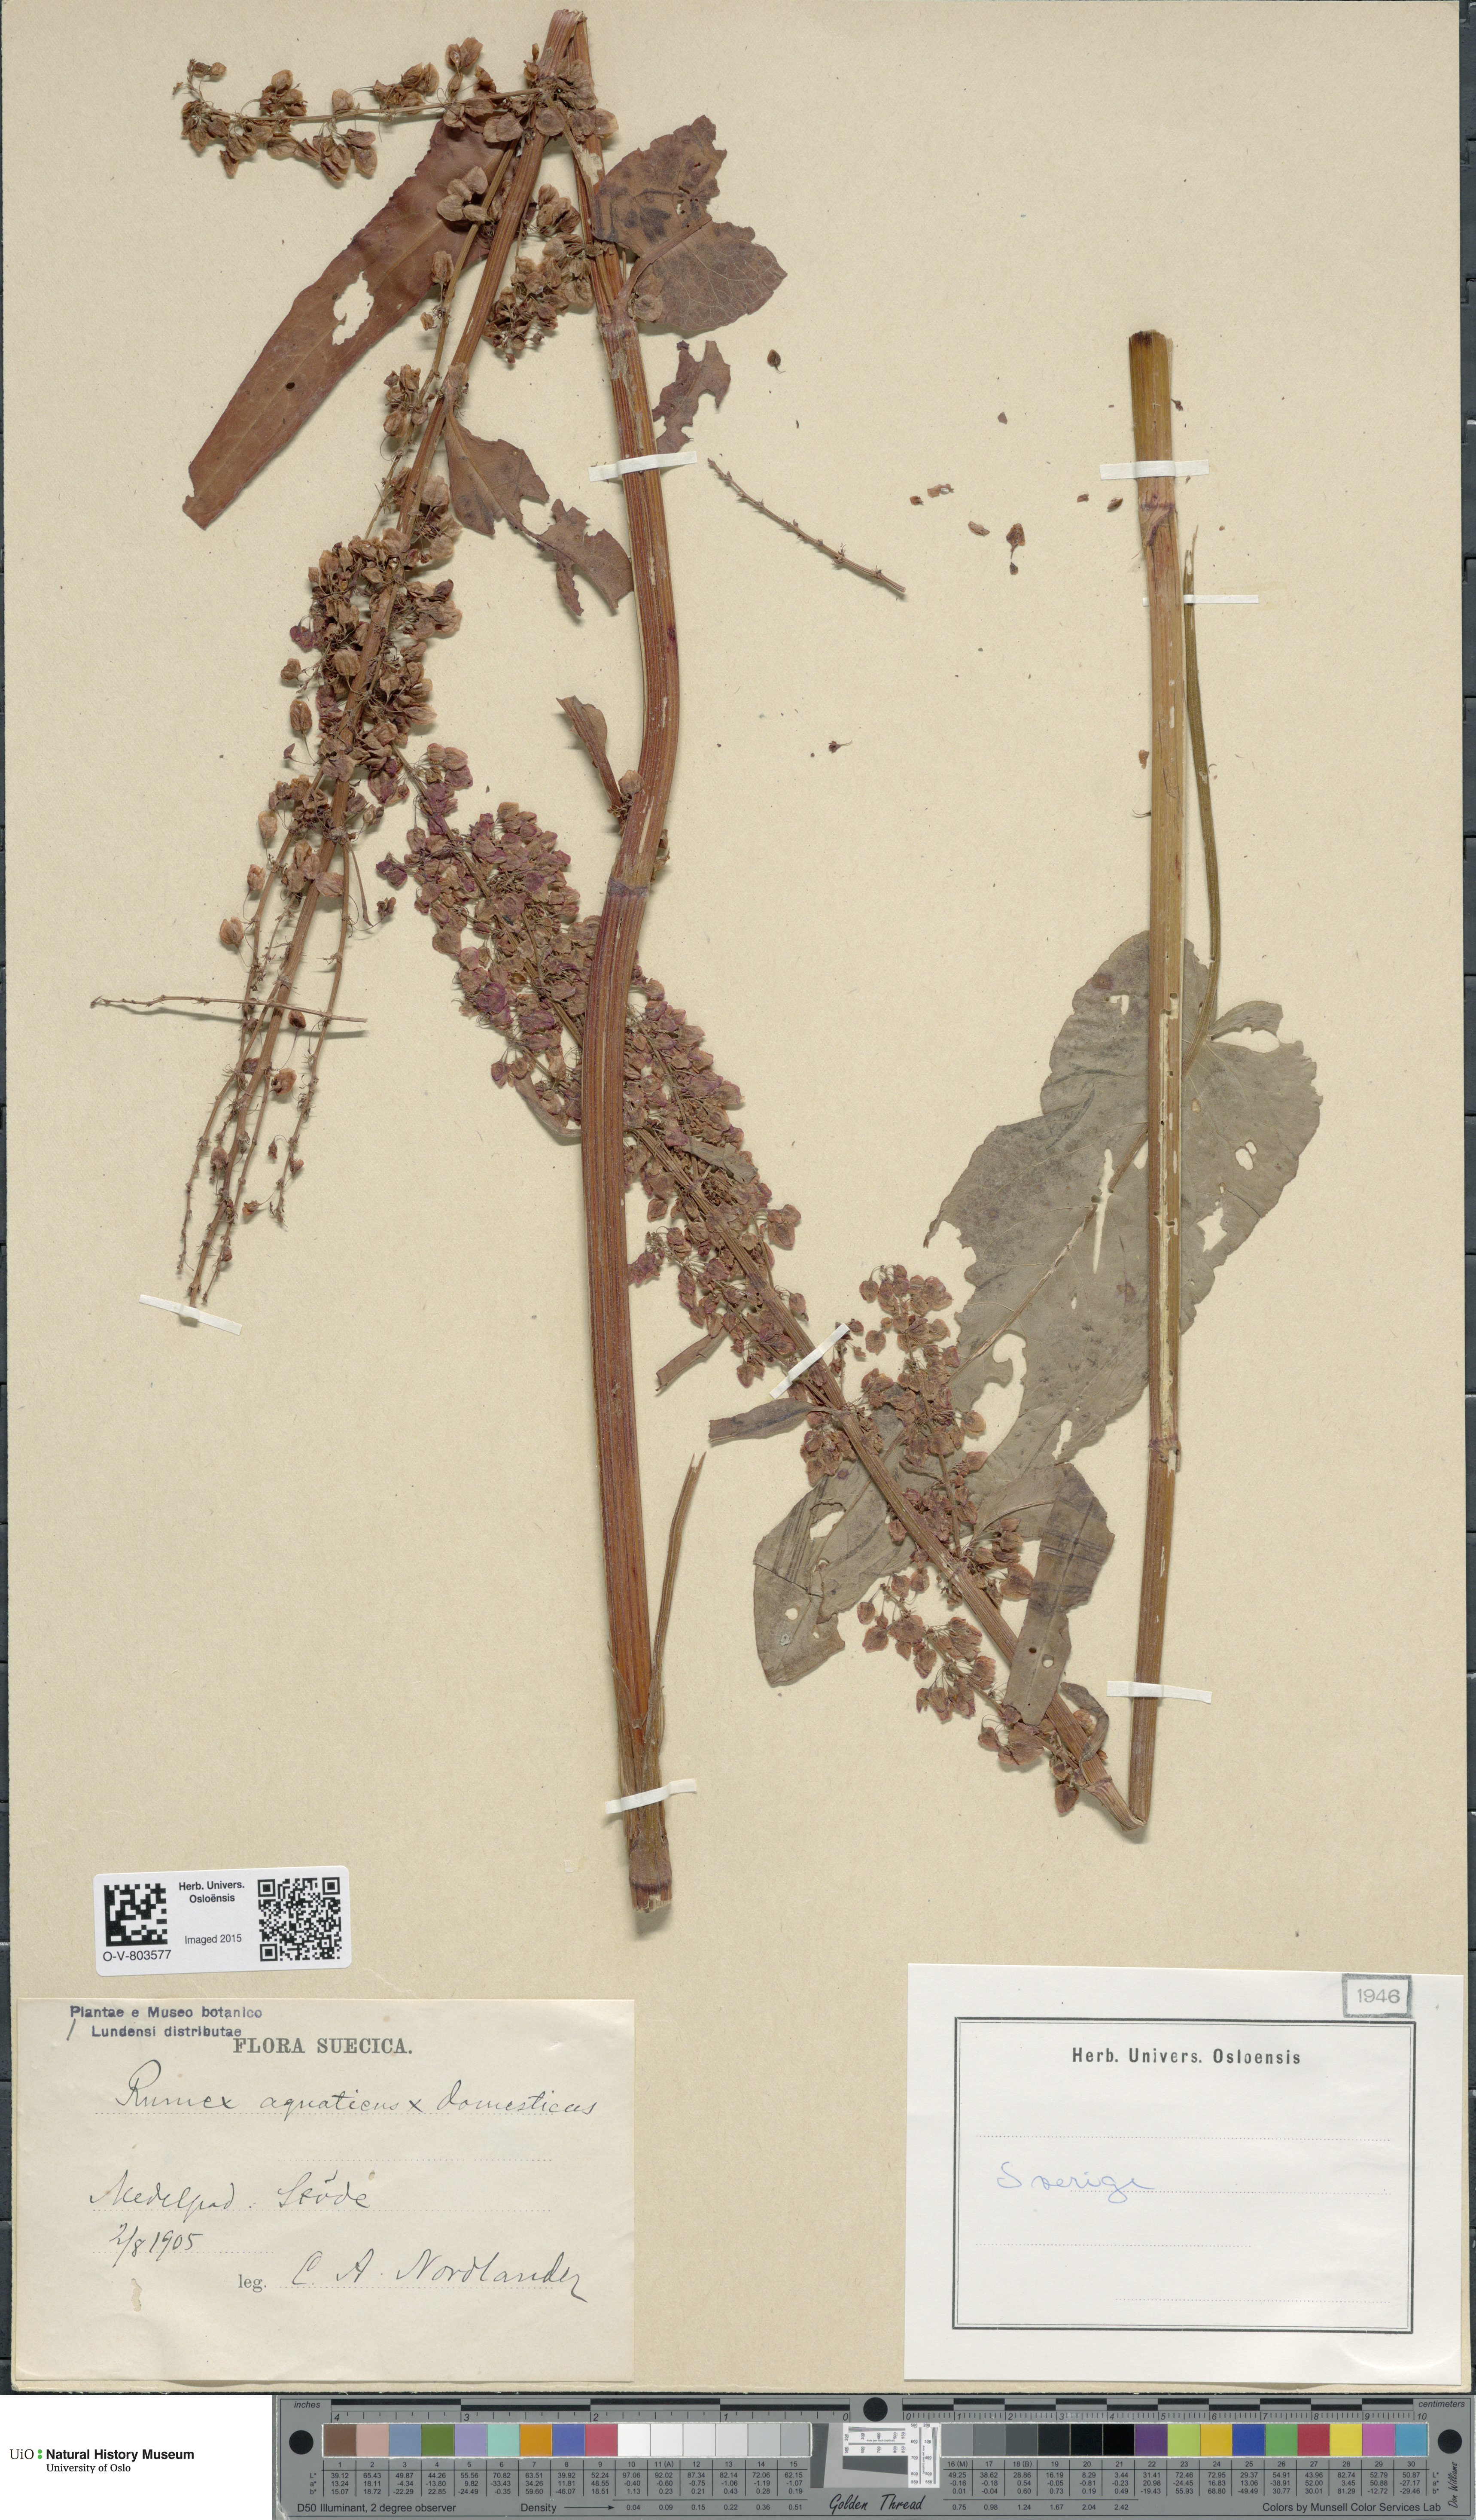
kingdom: Plantae
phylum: Tracheophyta
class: Magnoliopsida
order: Caryophyllales
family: Polygonaceae
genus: Rumex
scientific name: Rumex
